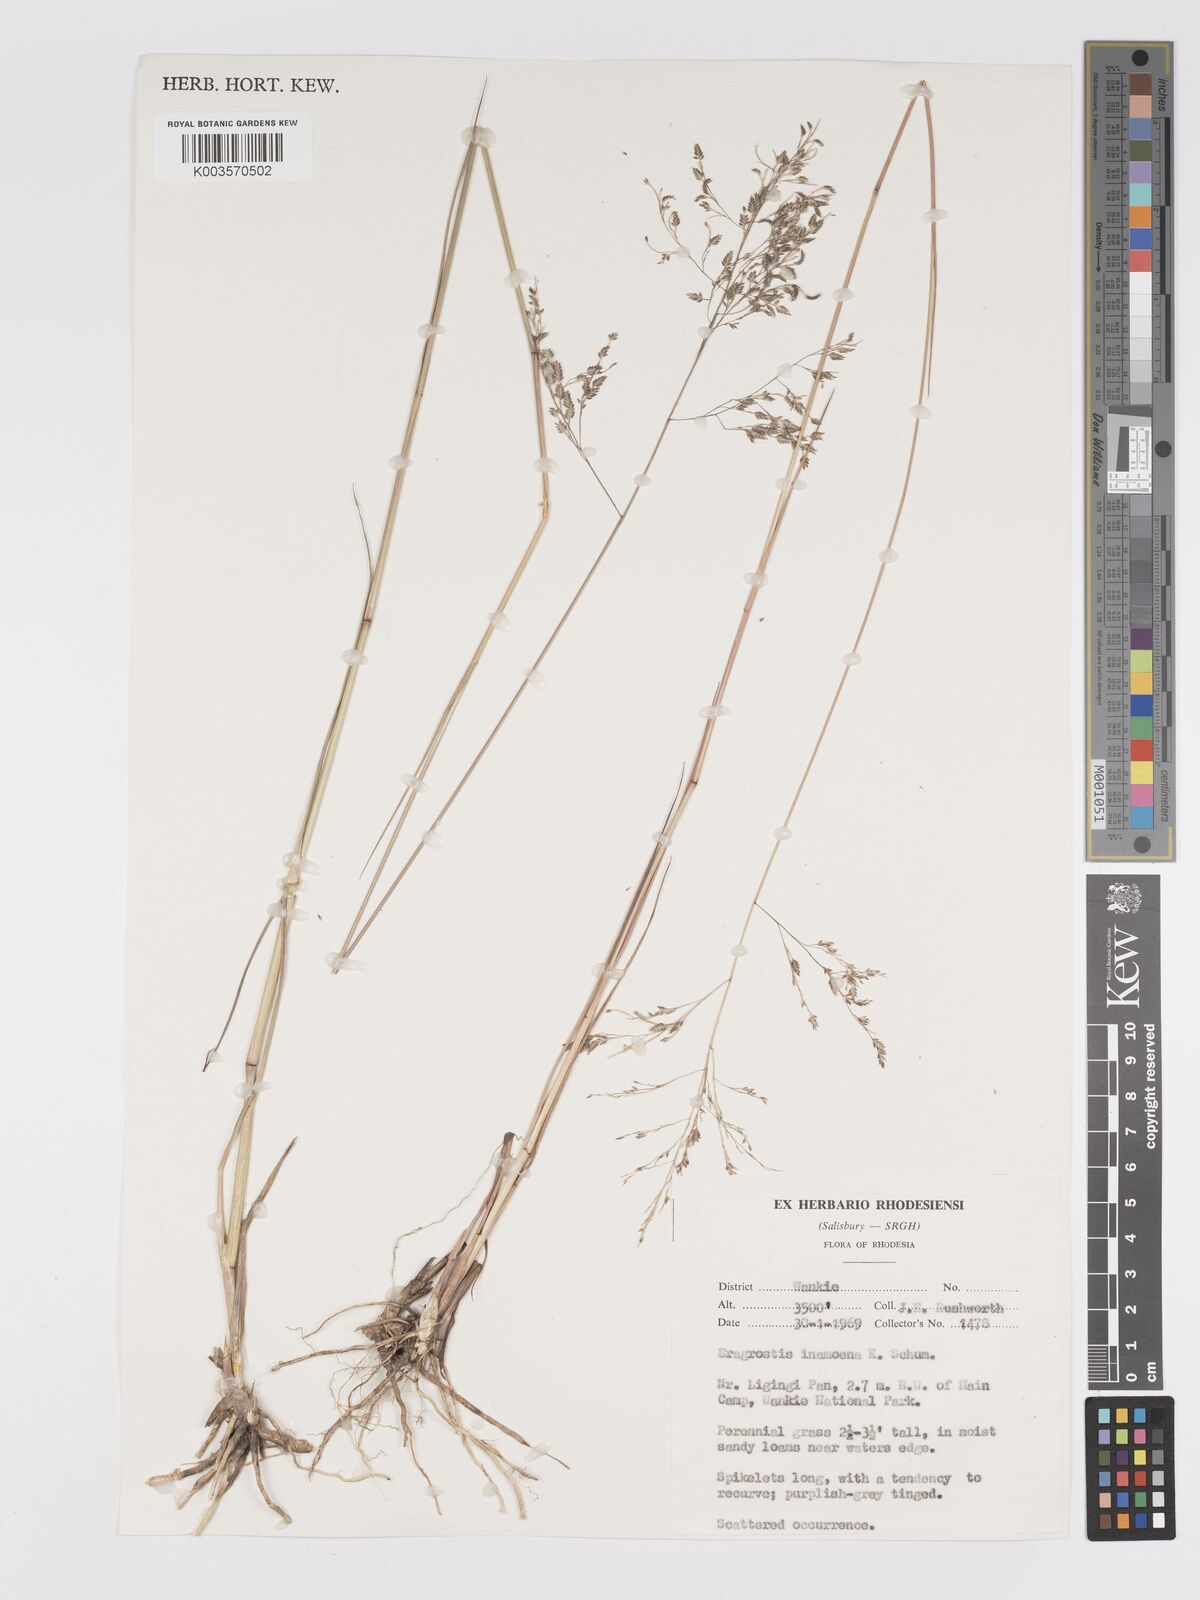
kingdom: Plantae
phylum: Tracheophyta
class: Liliopsida
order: Poales
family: Poaceae
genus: Eragrostis
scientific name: Eragrostis inamoena
